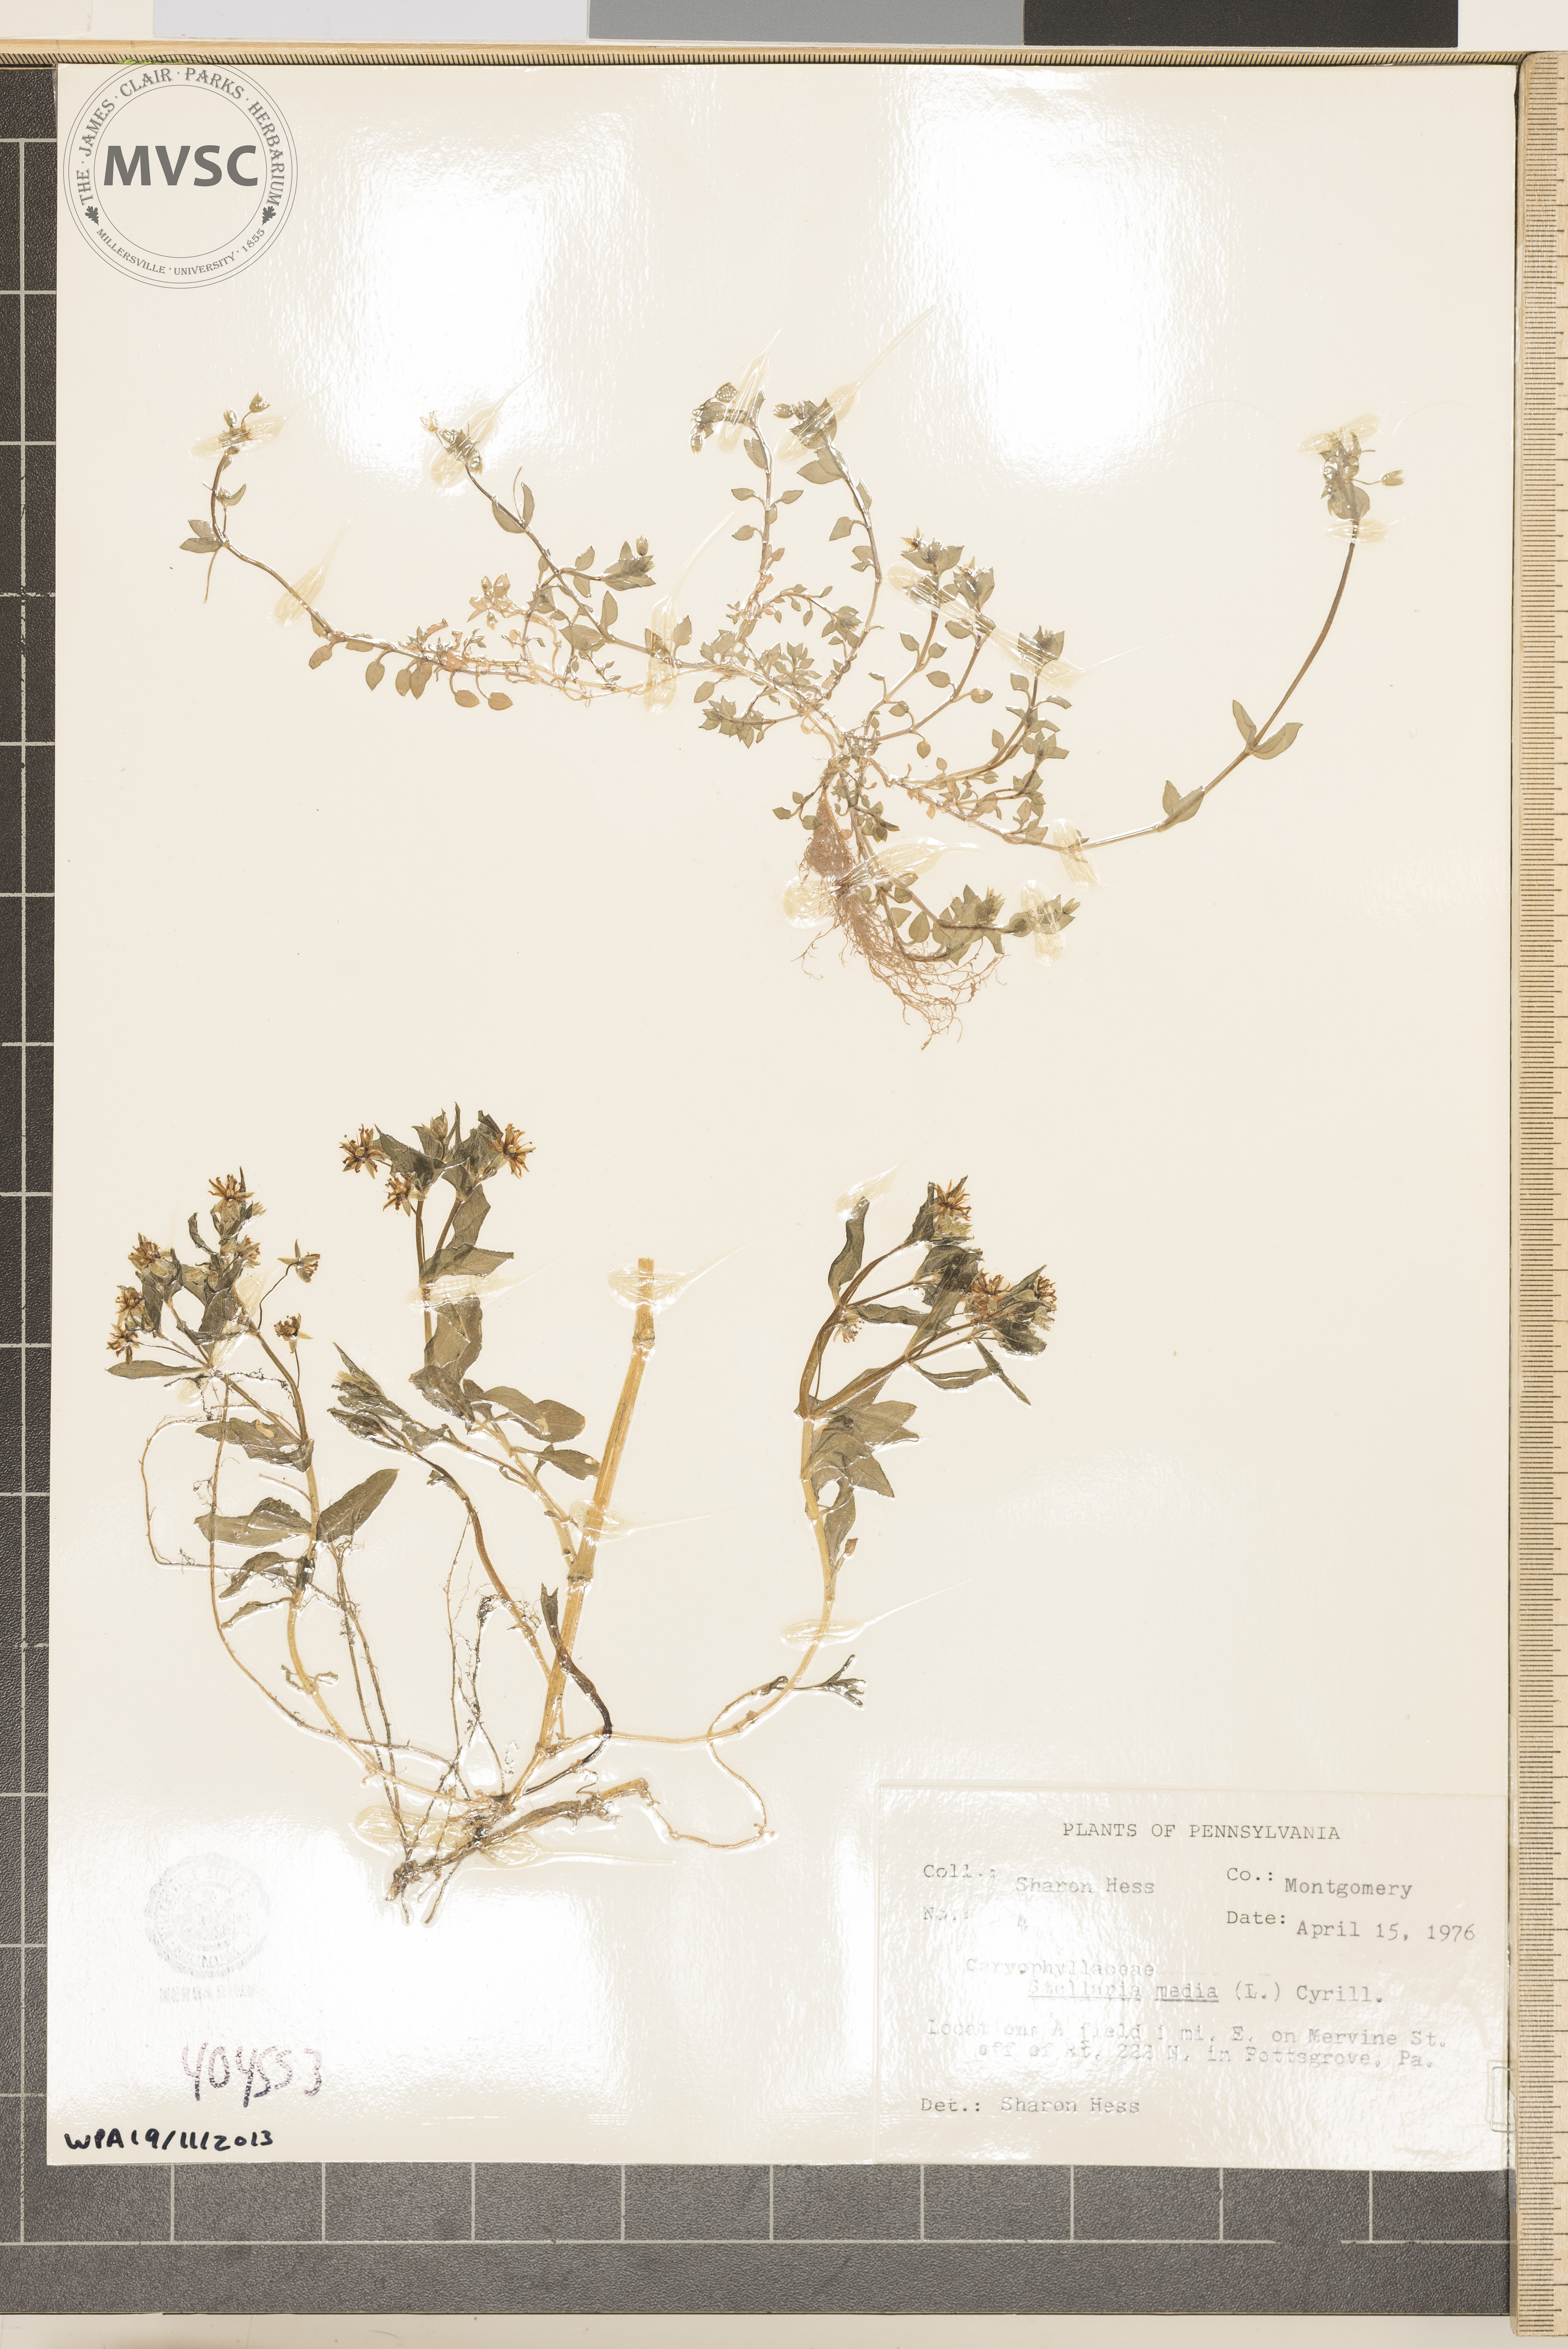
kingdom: Plantae
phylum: Tracheophyta
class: Magnoliopsida
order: Caryophyllales
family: Caryophyllaceae
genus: Stellaria
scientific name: Stellaria media
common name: Common chickweed
